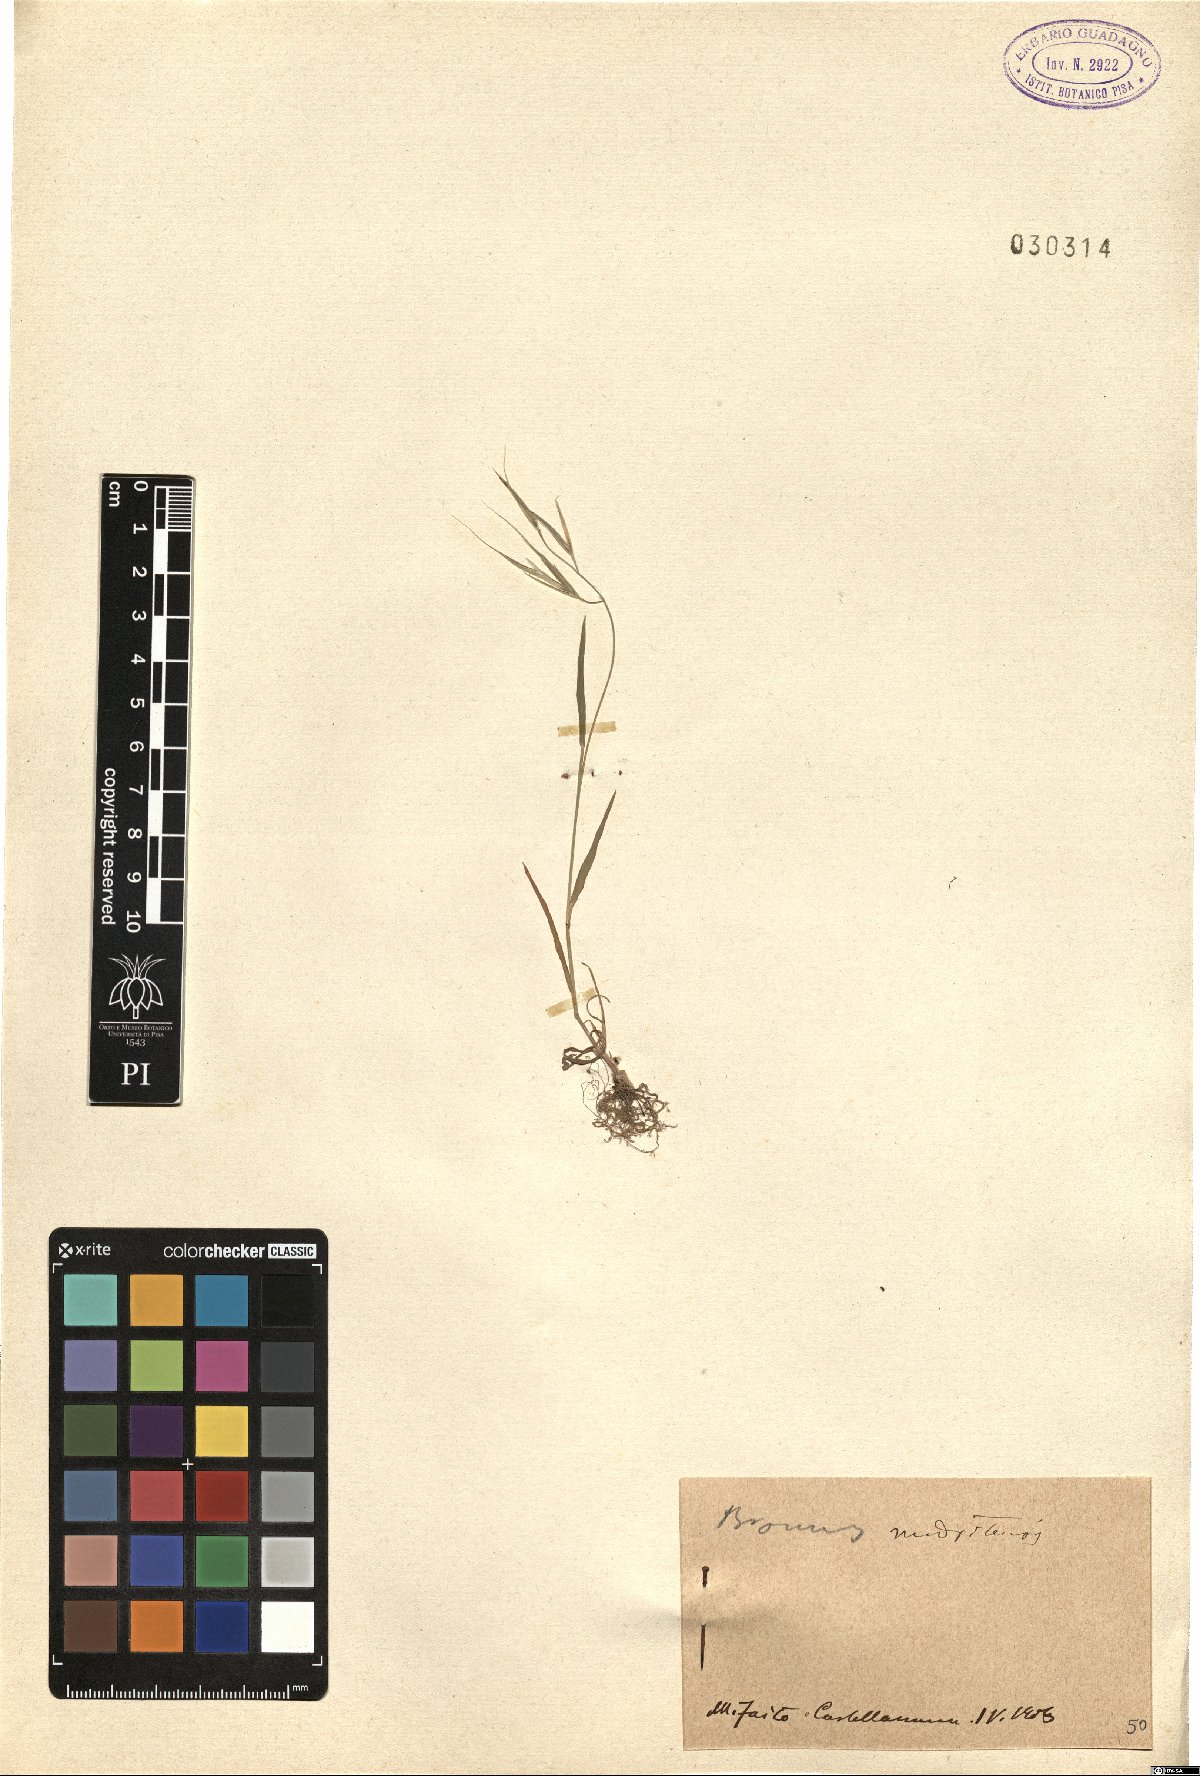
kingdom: Plantae
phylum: Tracheophyta
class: Liliopsida
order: Poales
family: Poaceae
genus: Bromus
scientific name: Bromus madritensis
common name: Compact brome
